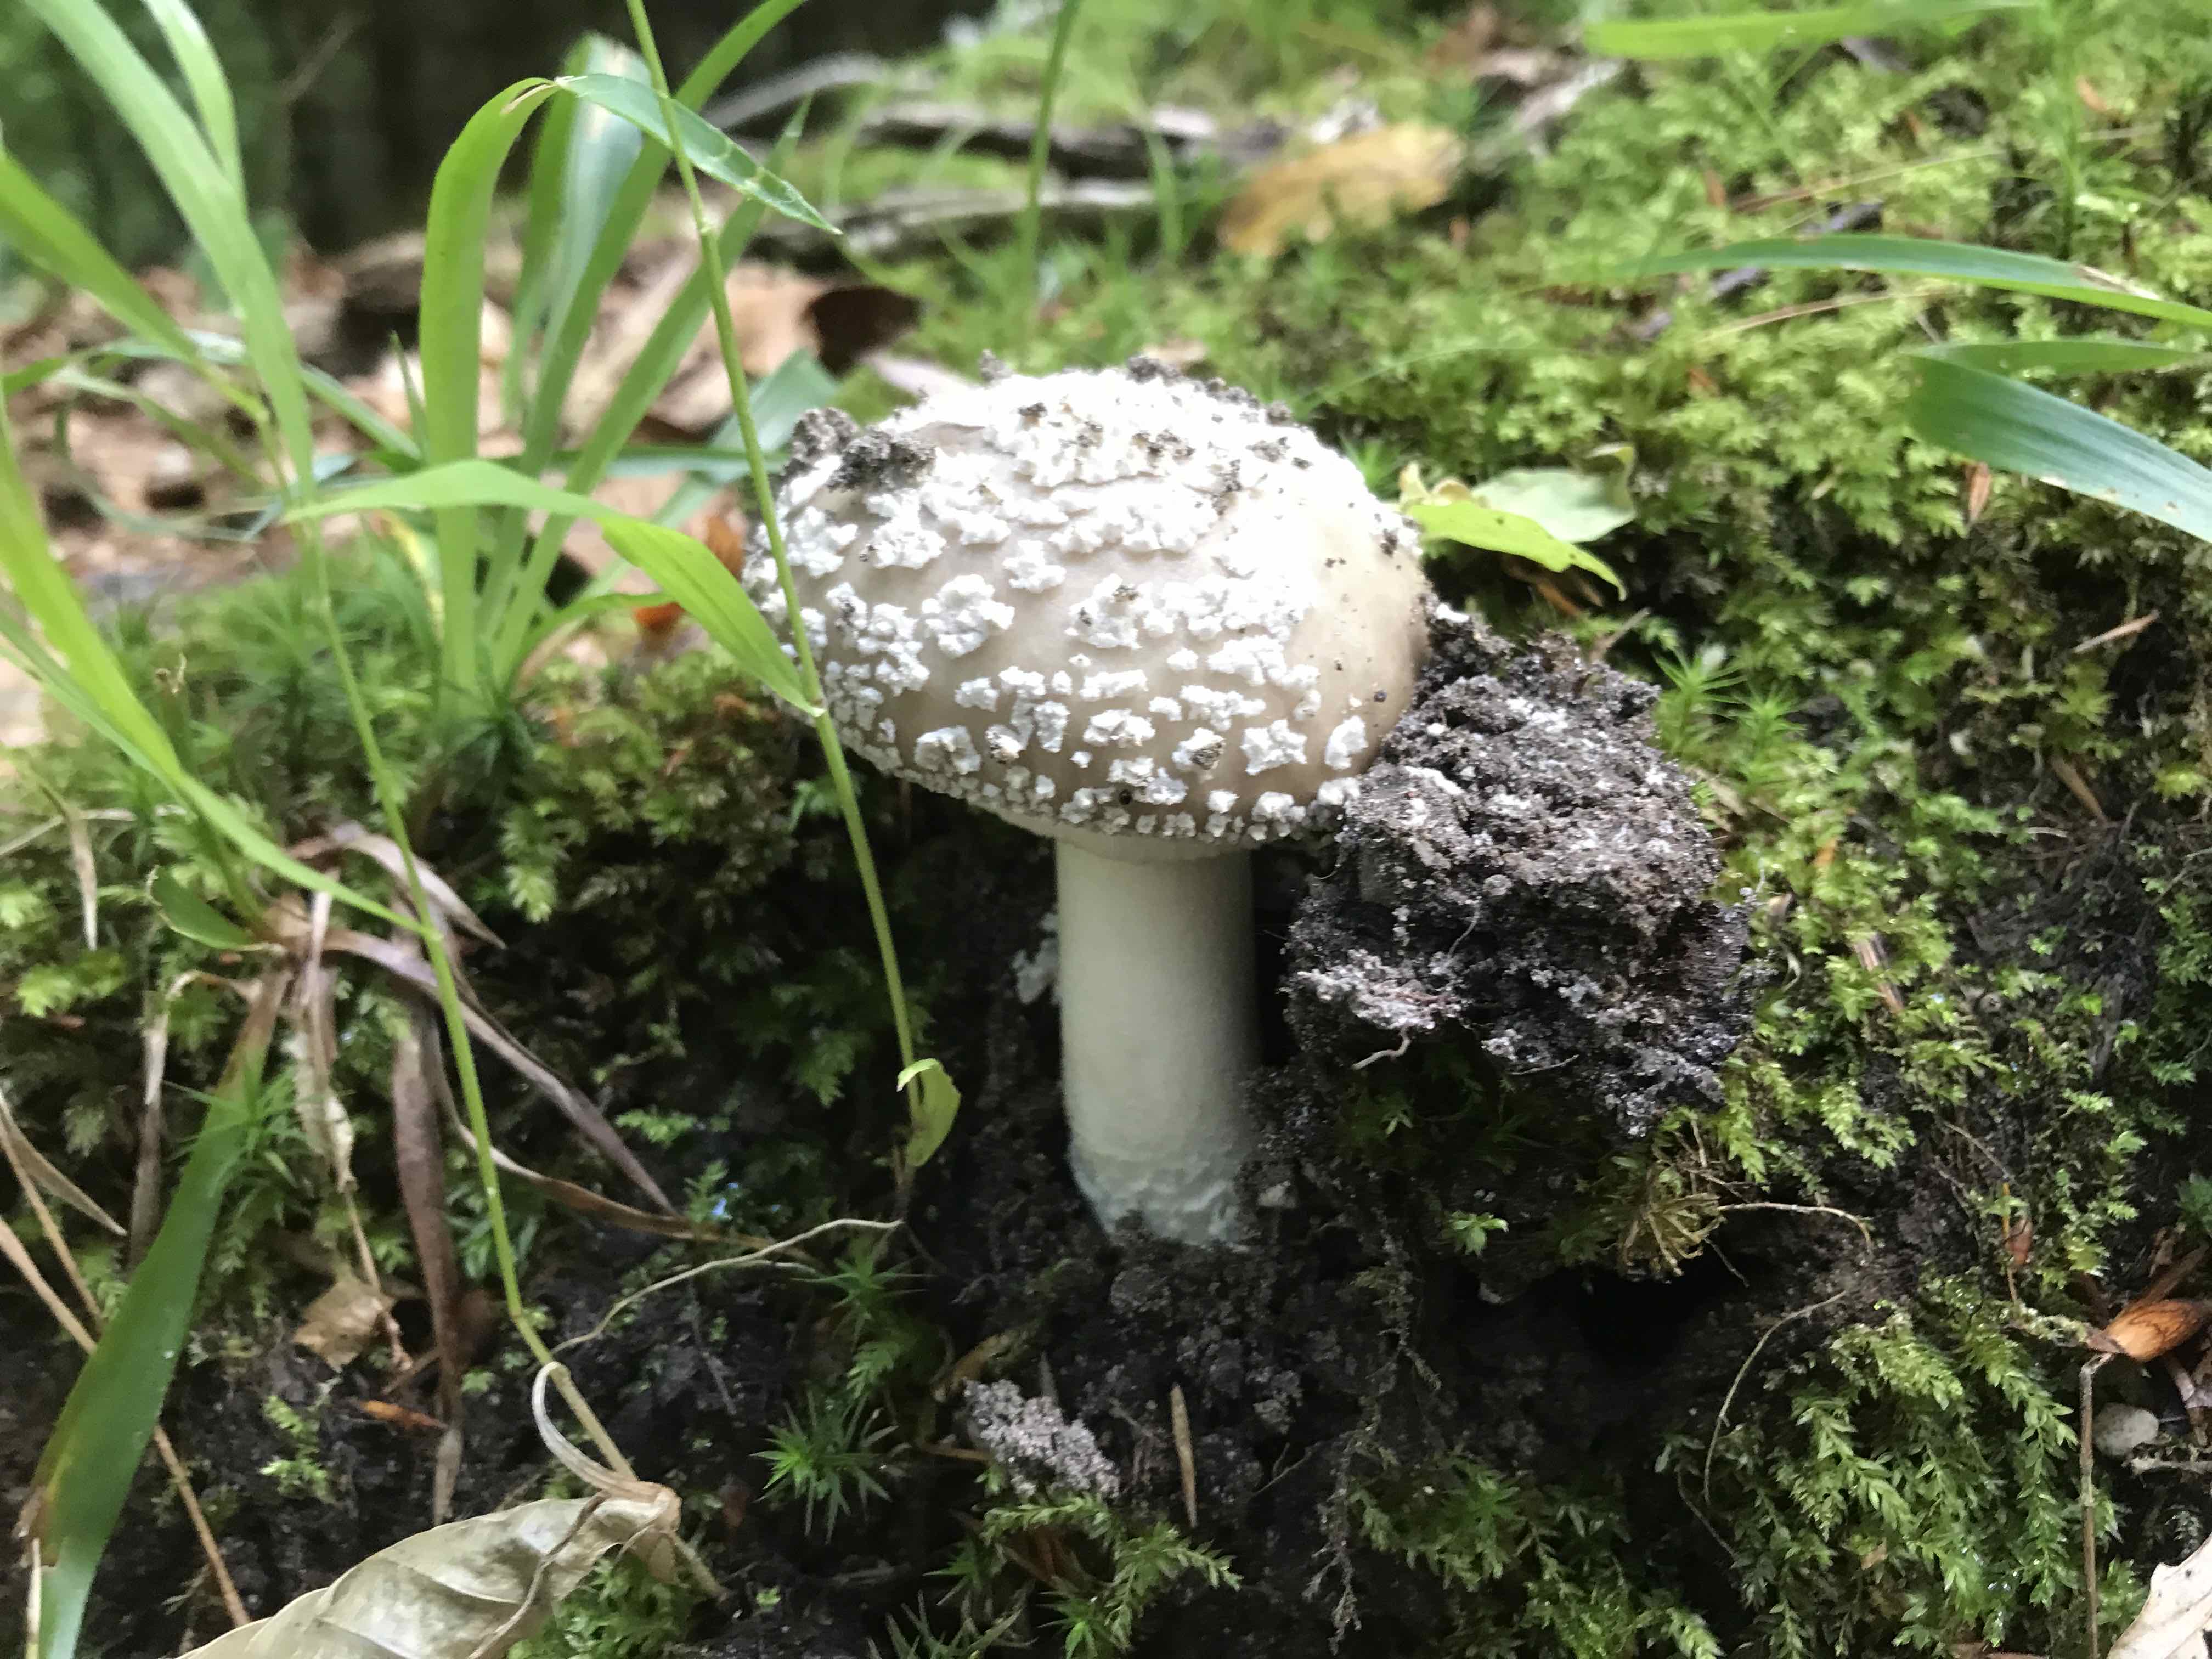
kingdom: Fungi
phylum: Basidiomycota
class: Agaricomycetes
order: Agaricales
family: Amanitaceae
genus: Amanita
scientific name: Amanita
